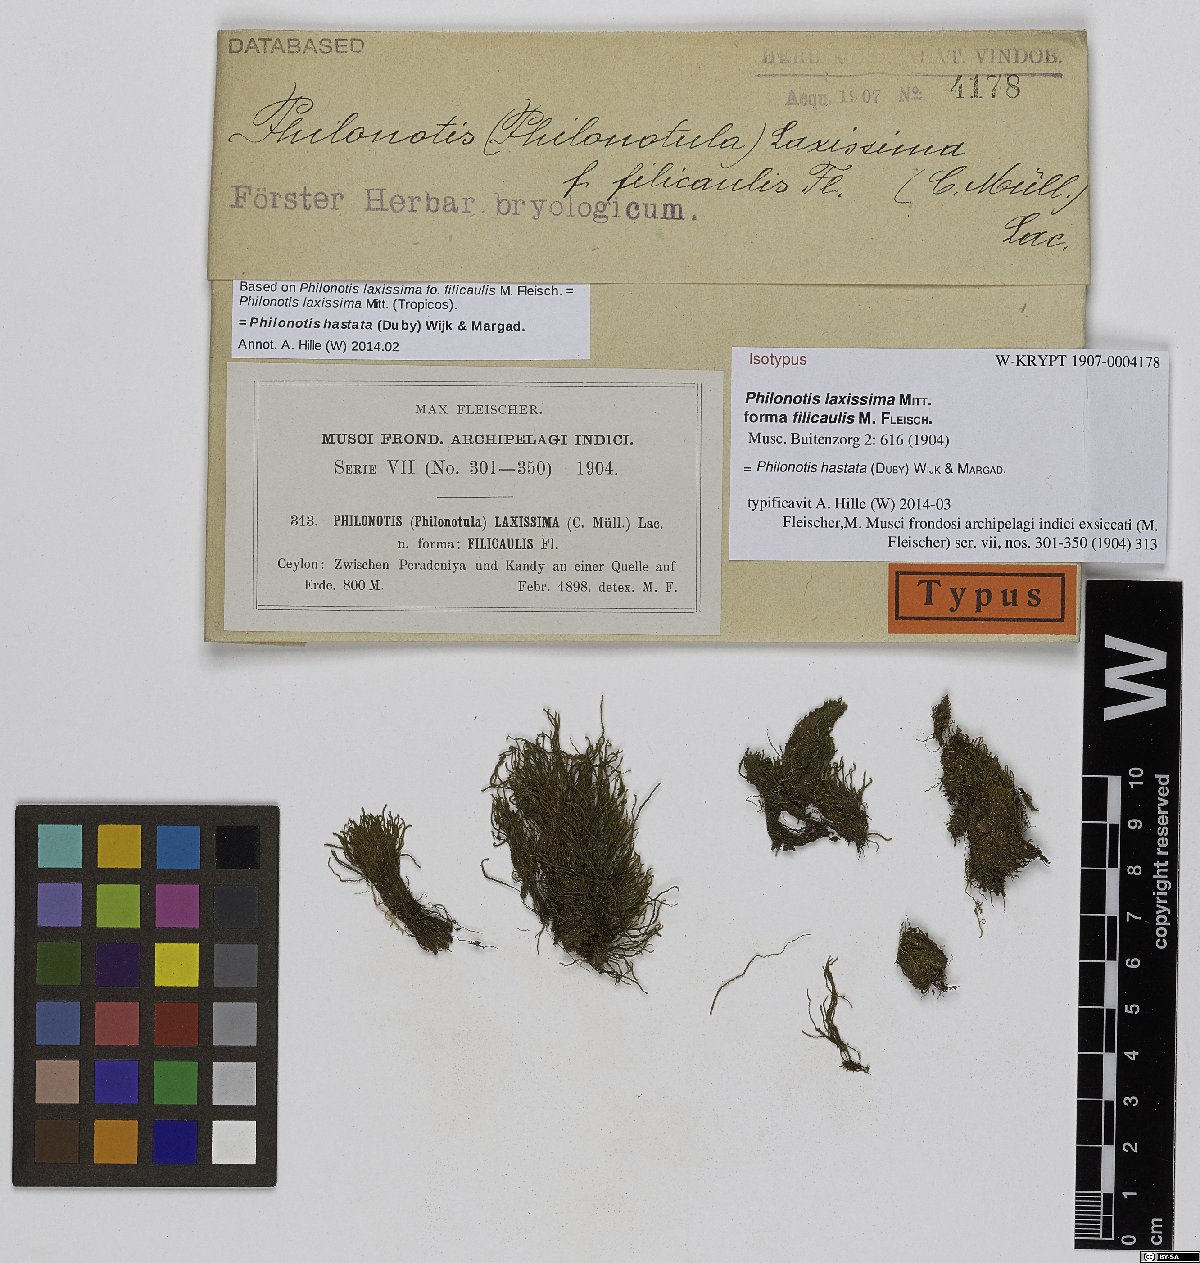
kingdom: Plantae
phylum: Bryophyta
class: Bryopsida
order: Bartramiales
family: Bartramiaceae
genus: Philonotis
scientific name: Philonotis hastata
